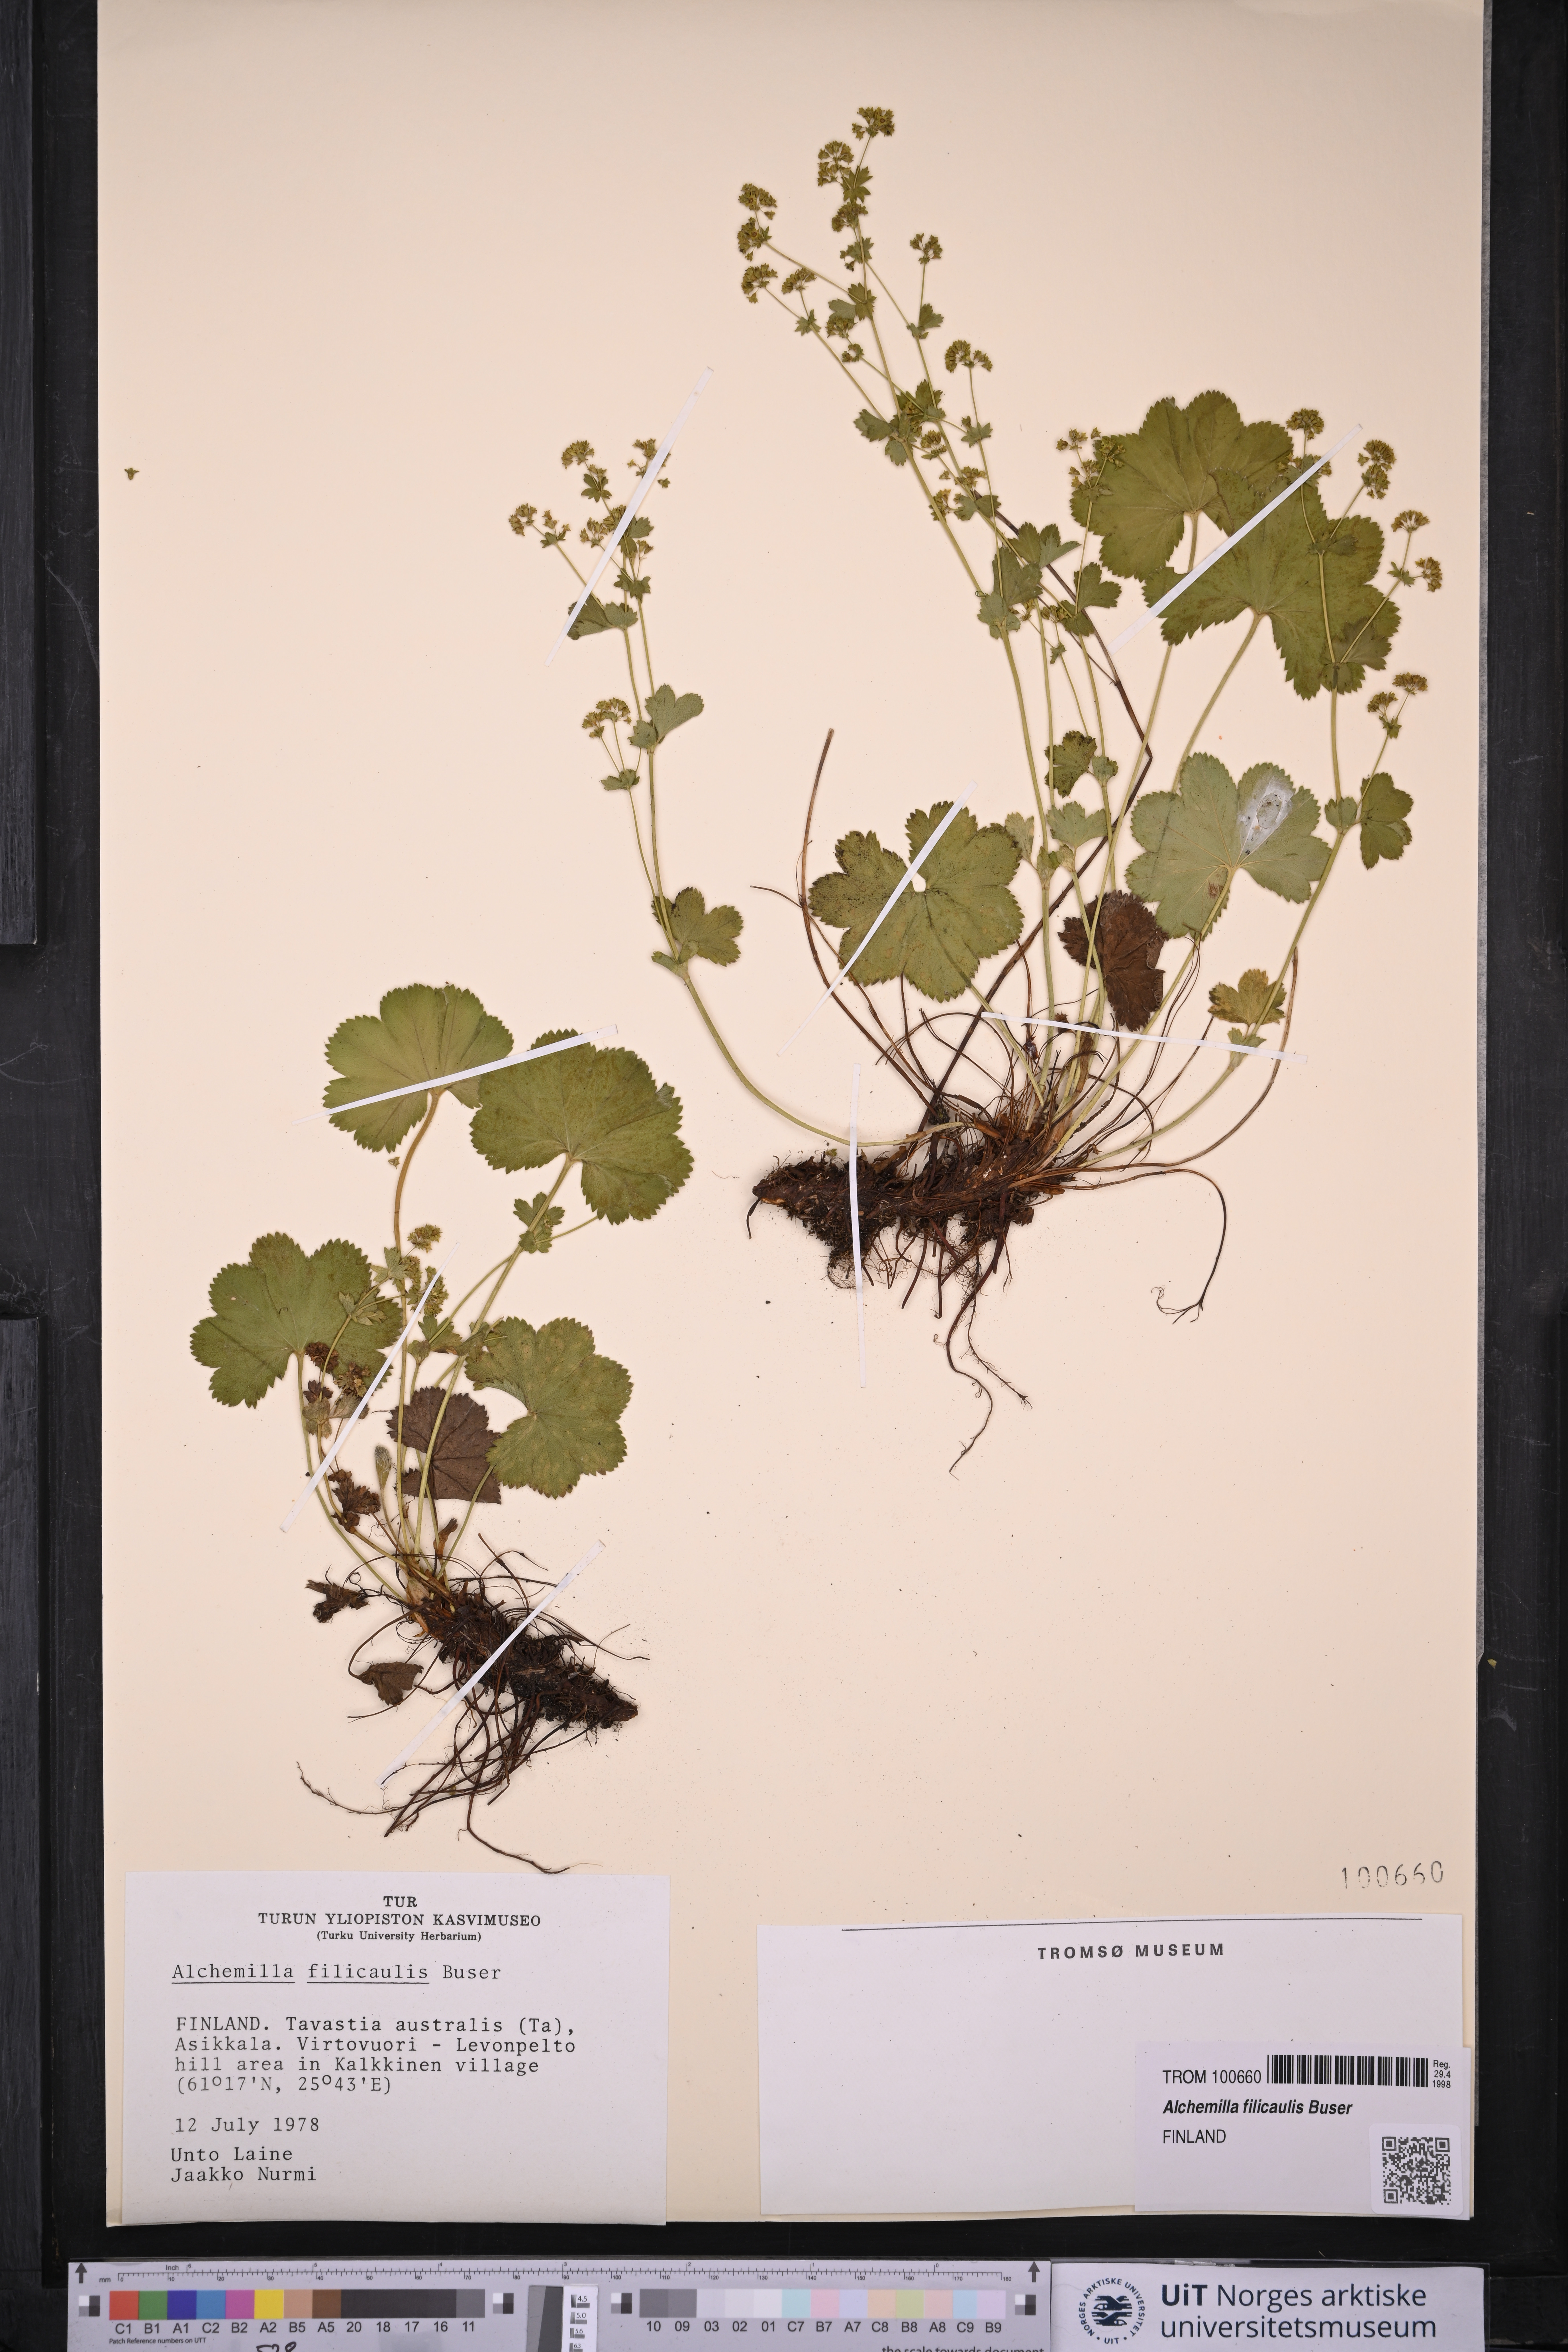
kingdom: Plantae
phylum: Tracheophyta
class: Magnoliopsida
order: Rosales
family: Rosaceae
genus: Alchemilla
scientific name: Alchemilla filicaulis
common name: Hairy lady's-mantle
